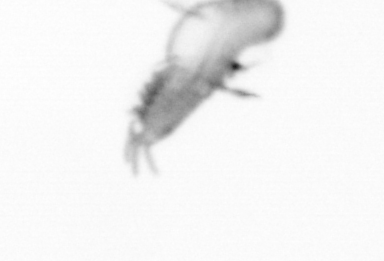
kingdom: Animalia
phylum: Annelida
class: Polychaeta
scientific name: Polychaeta
